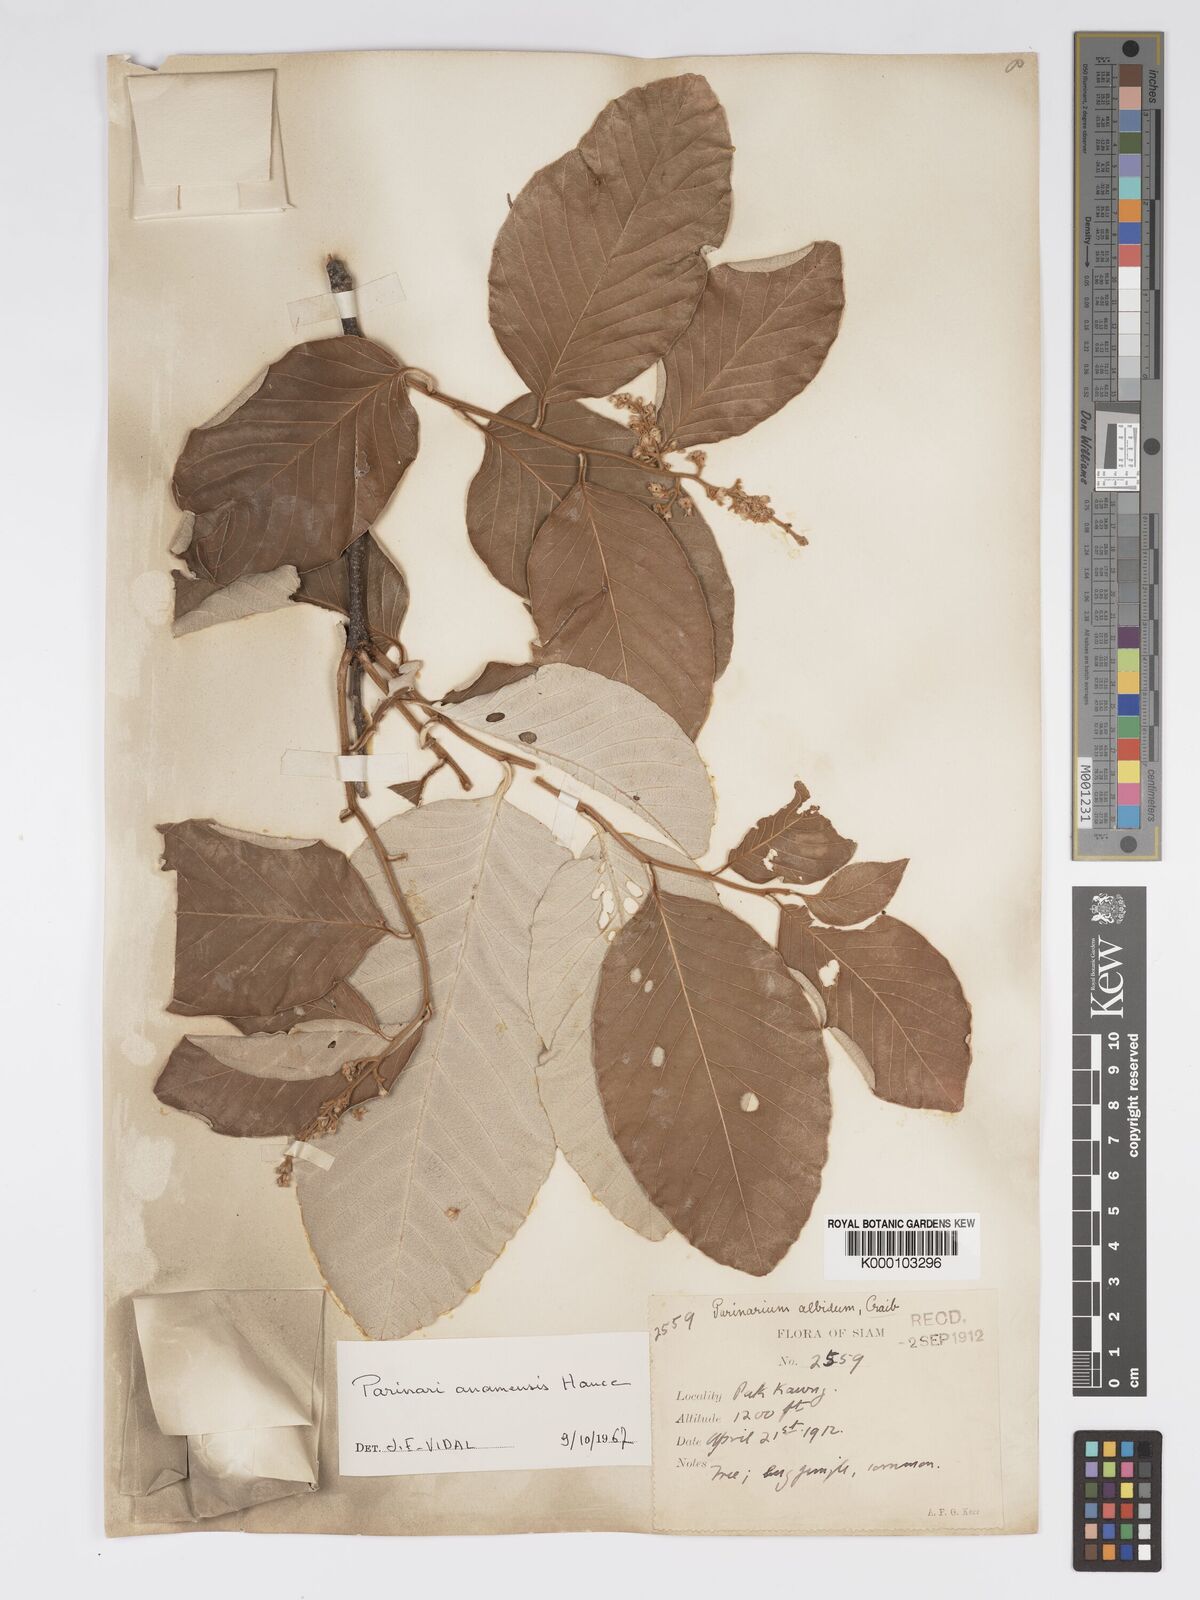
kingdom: Plantae
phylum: Tracheophyta
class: Magnoliopsida
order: Malpighiales
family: Chrysobalanaceae
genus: Parinari
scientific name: Parinari anamensis
